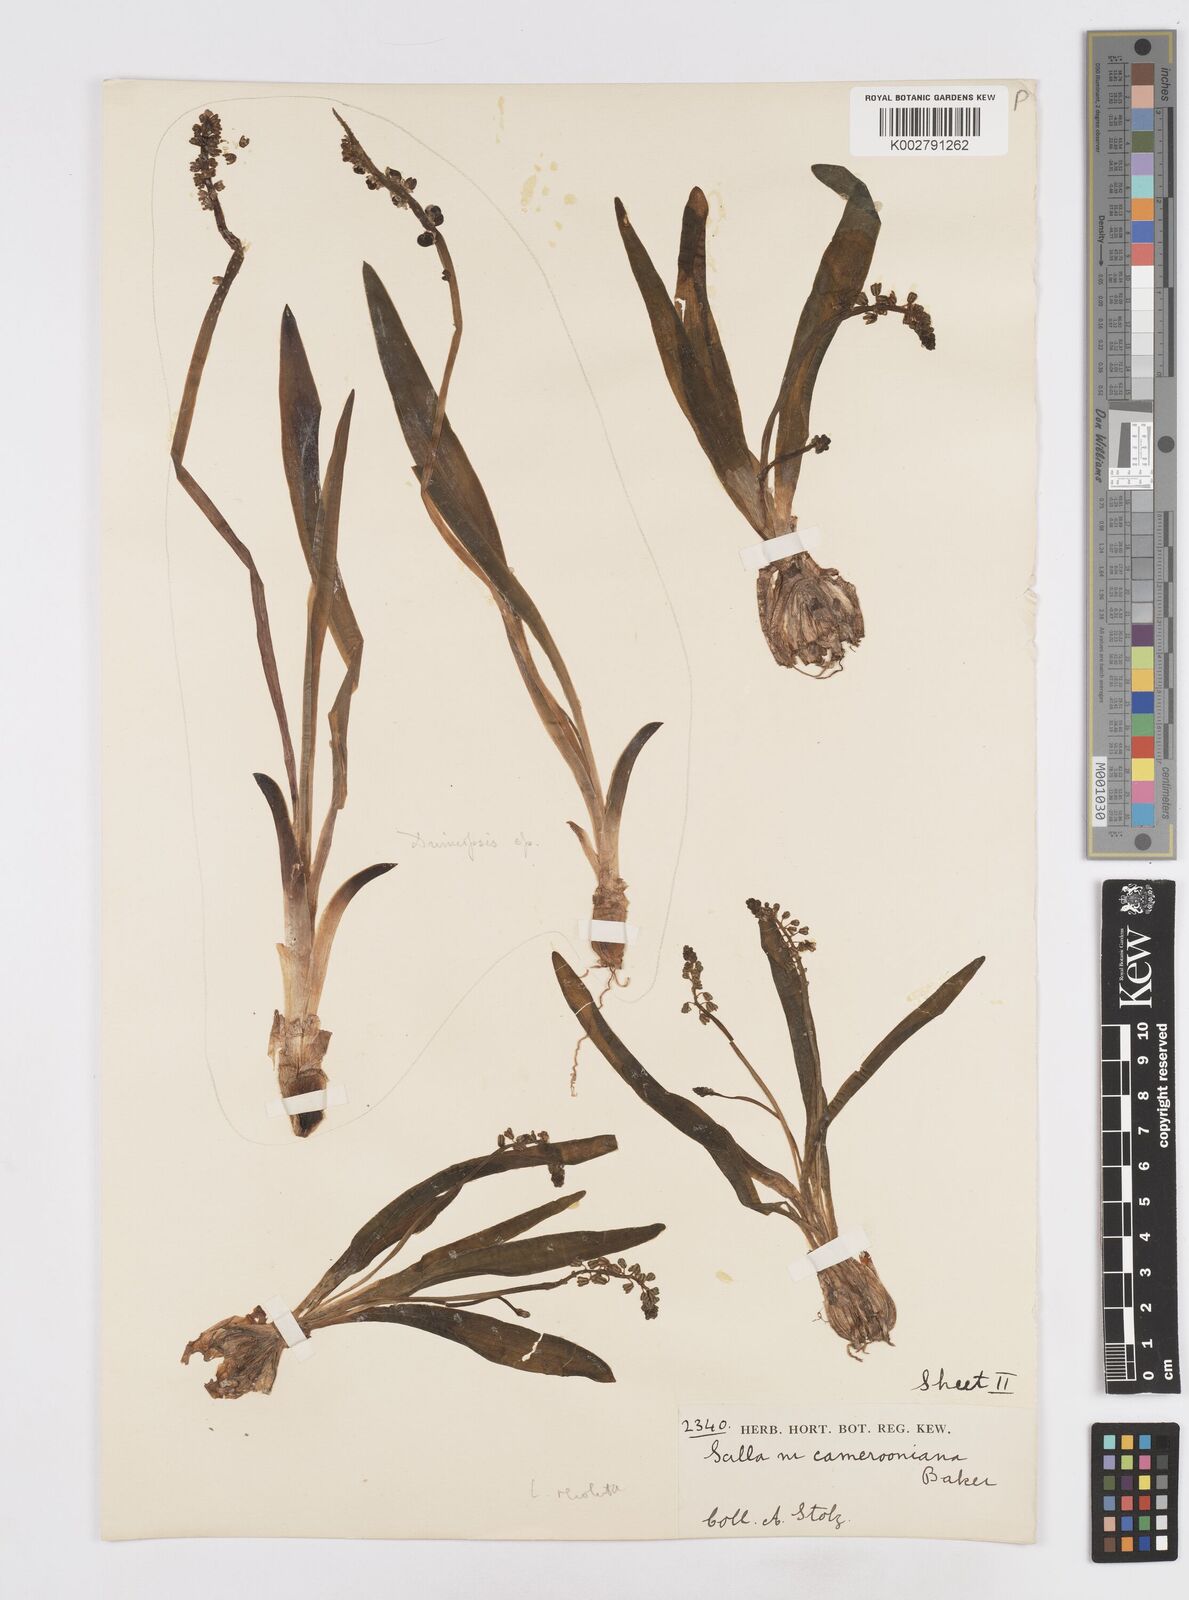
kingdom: Plantae
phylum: Tracheophyta
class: Liliopsida
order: Asparagales
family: Asparagaceae
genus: Ledebouria
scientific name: Ledebouria camerooniana
